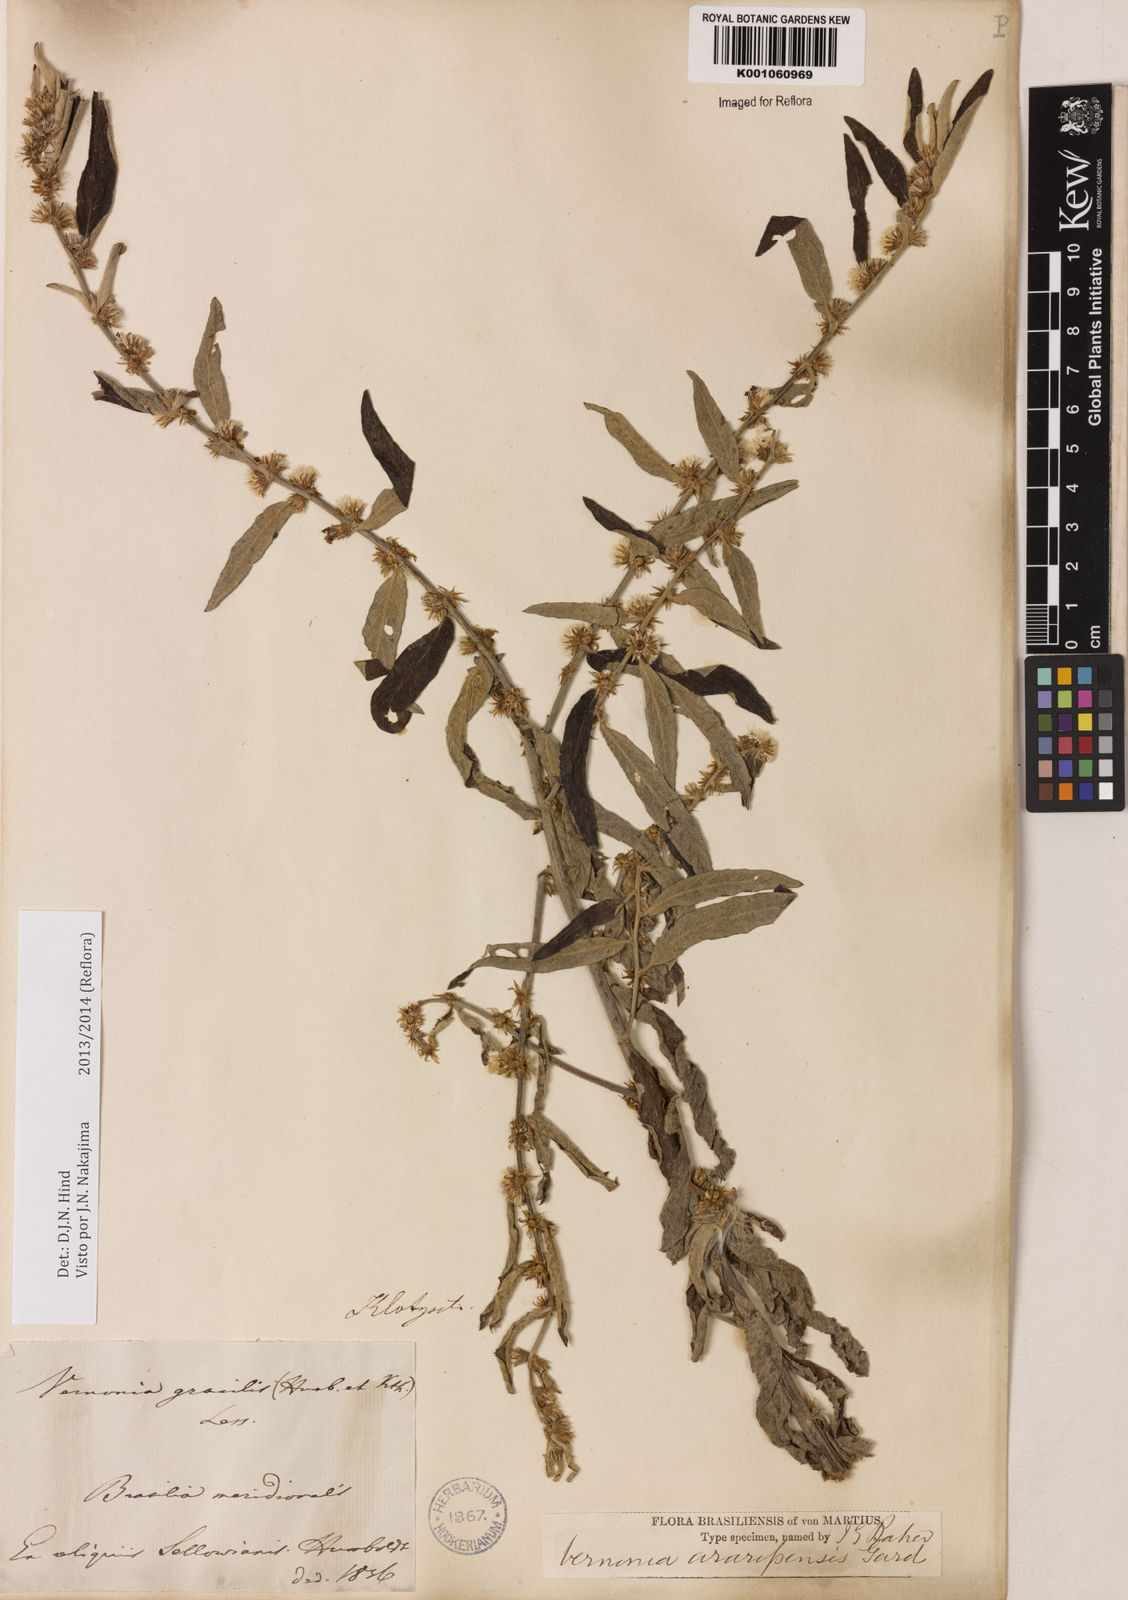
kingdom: Plantae
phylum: Tracheophyta
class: Magnoliopsida
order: Asterales
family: Asteraceae
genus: Lepidaploa
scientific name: Lepidaploa araripensis
